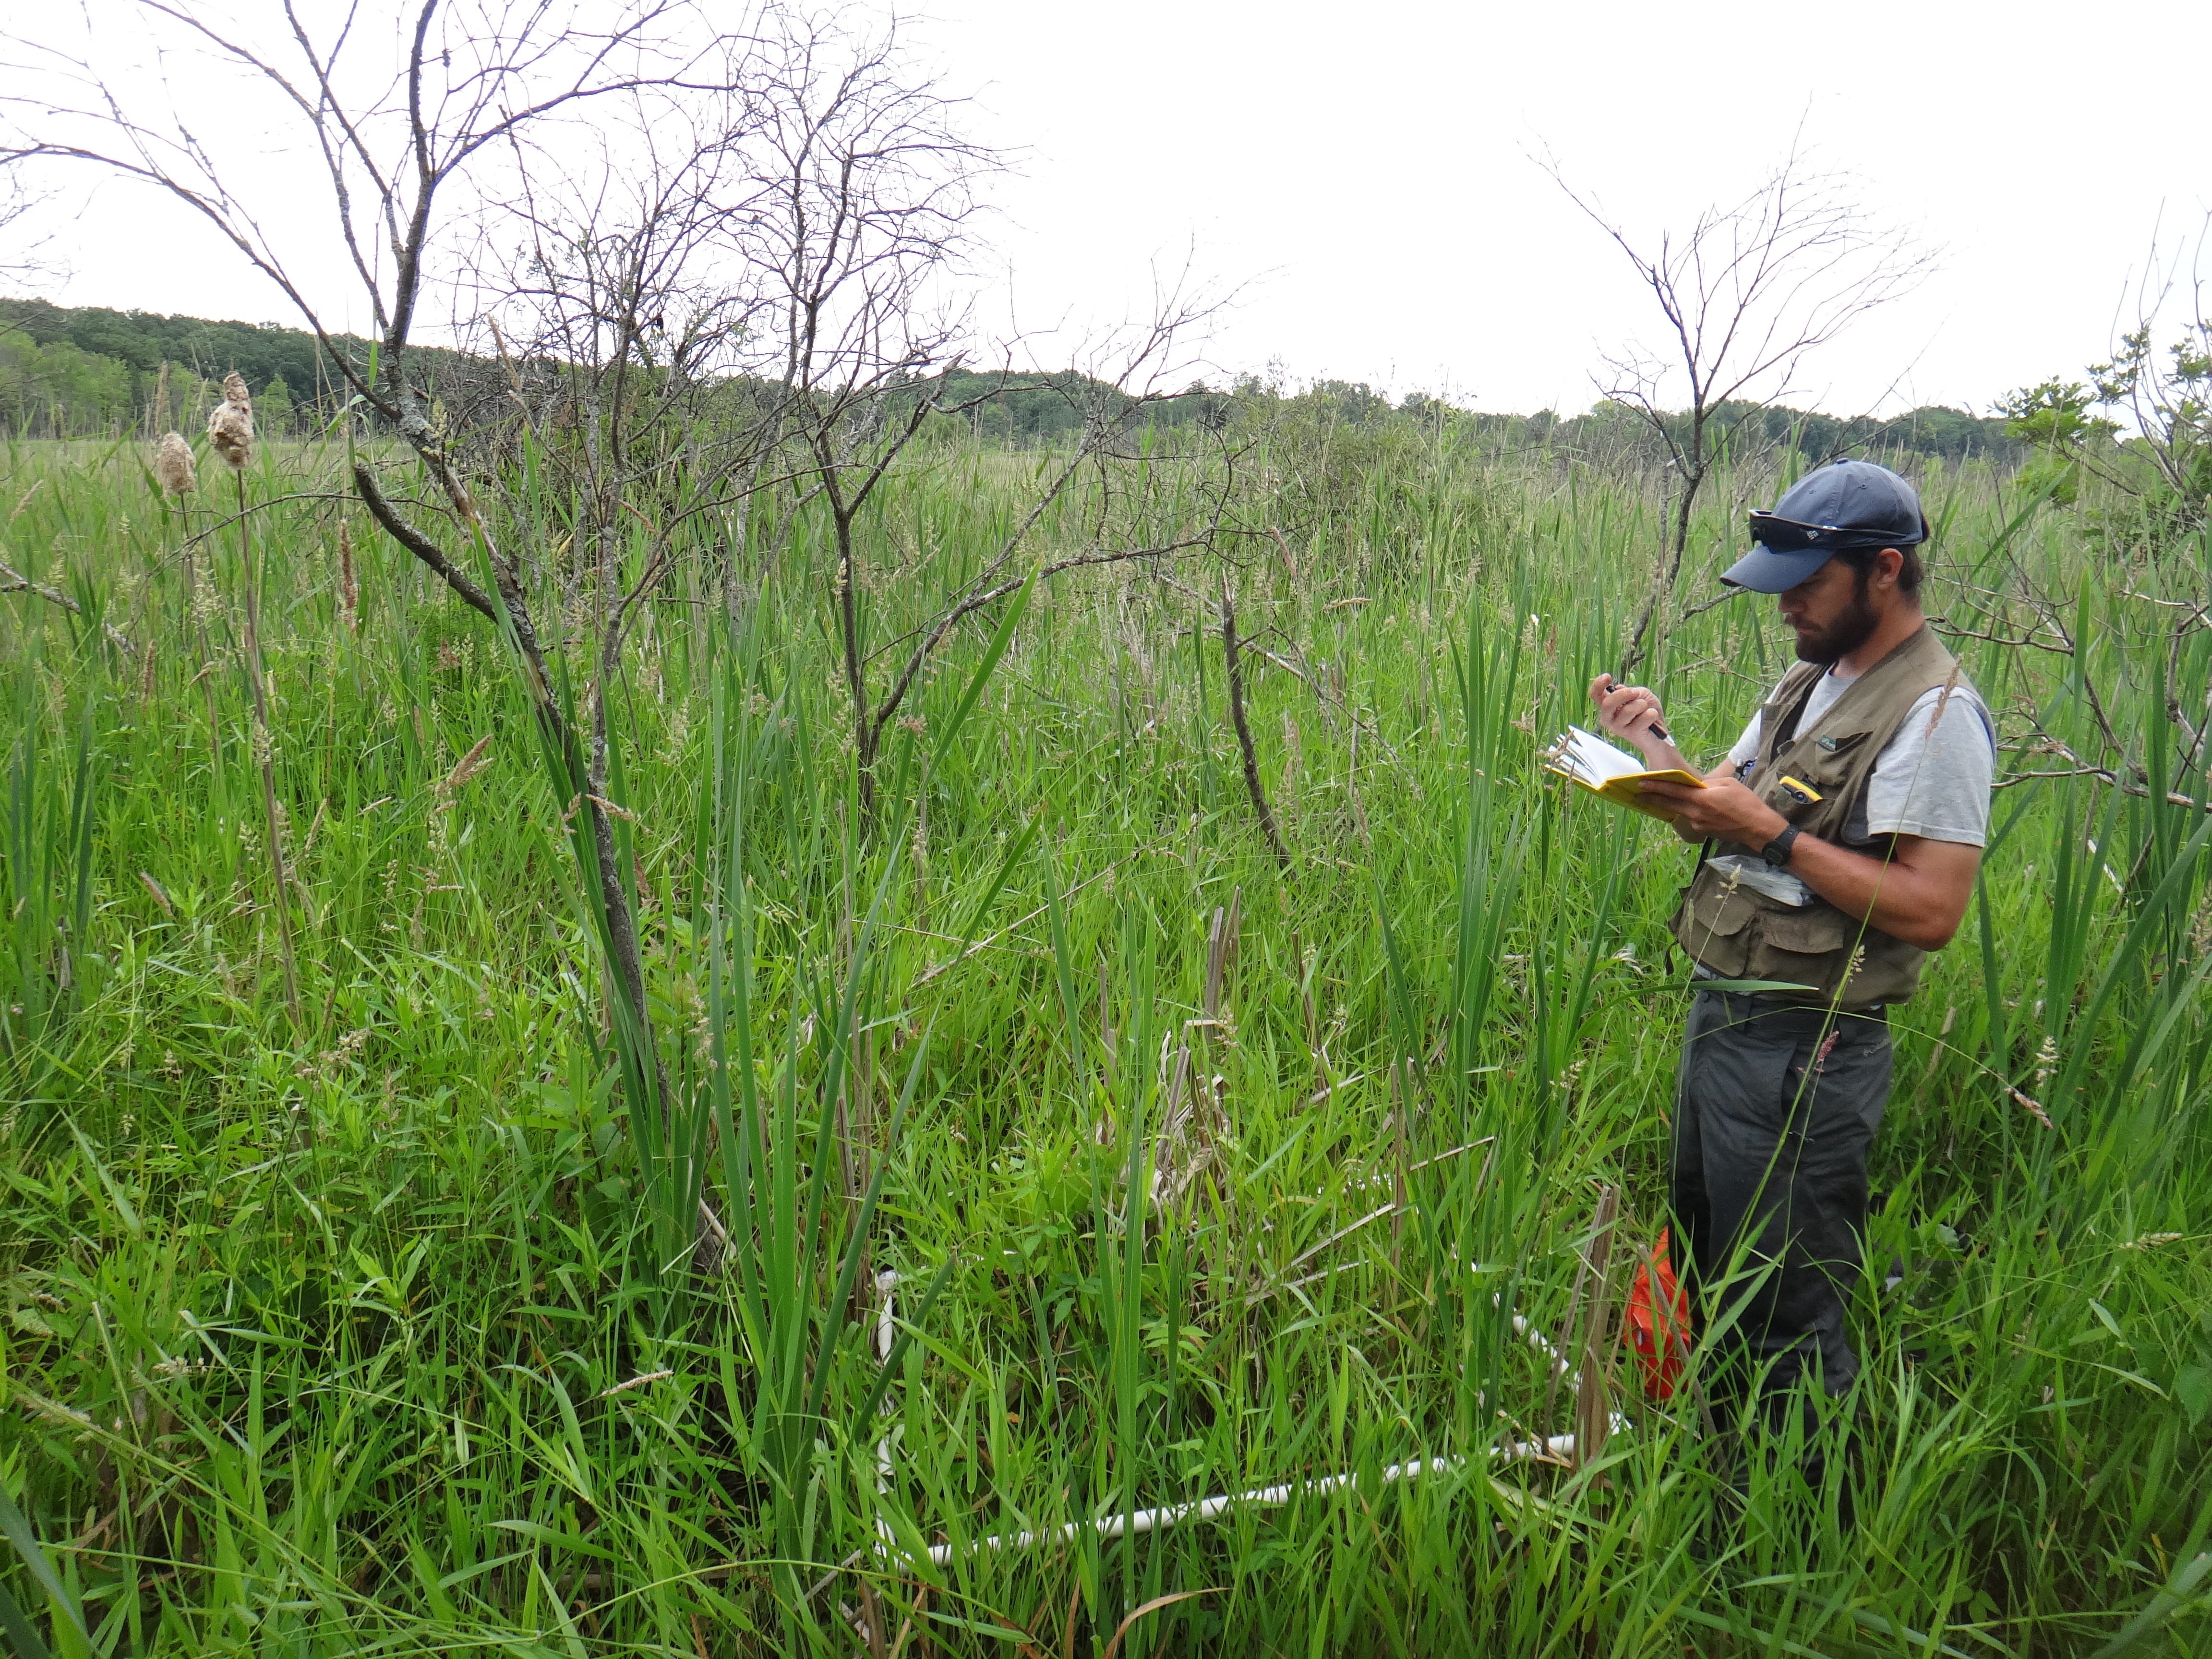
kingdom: Plantae
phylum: Tracheophyta
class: Liliopsida
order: Poales
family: Poaceae
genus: Phalaris
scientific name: Phalaris arundinacea
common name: Reed canary-grass
